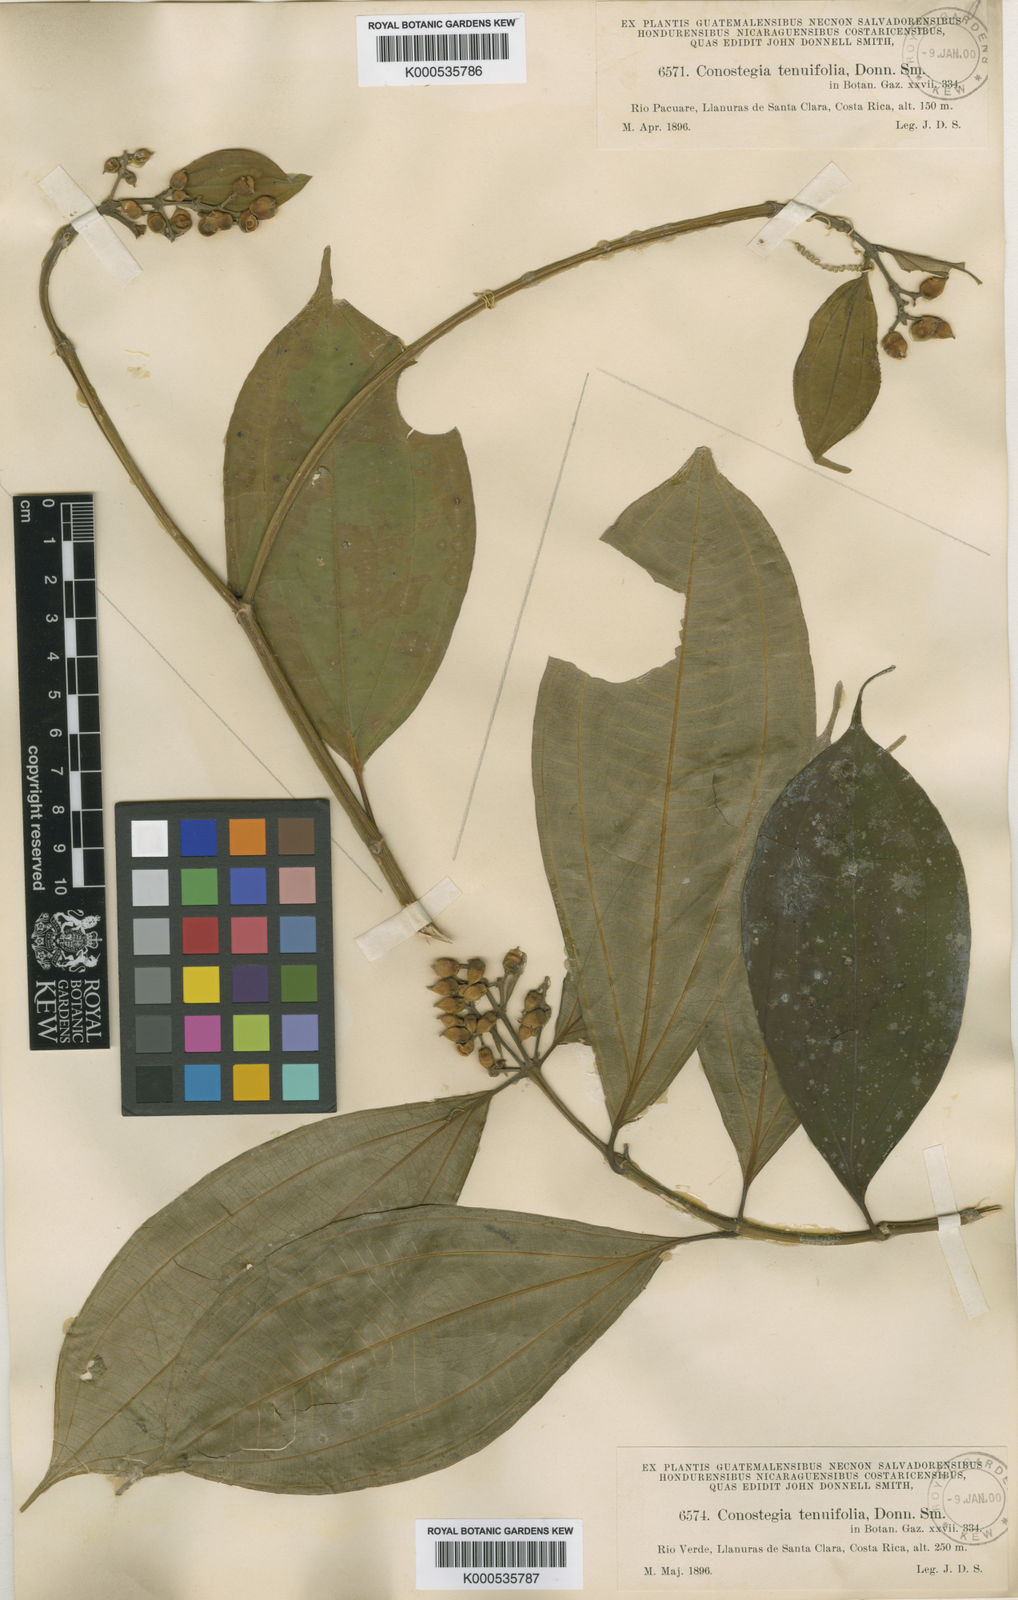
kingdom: Plantae
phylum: Tracheophyta
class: Magnoliopsida
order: Myrtales
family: Melastomataceae
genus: Miconia
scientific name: Miconia tenuifolia
